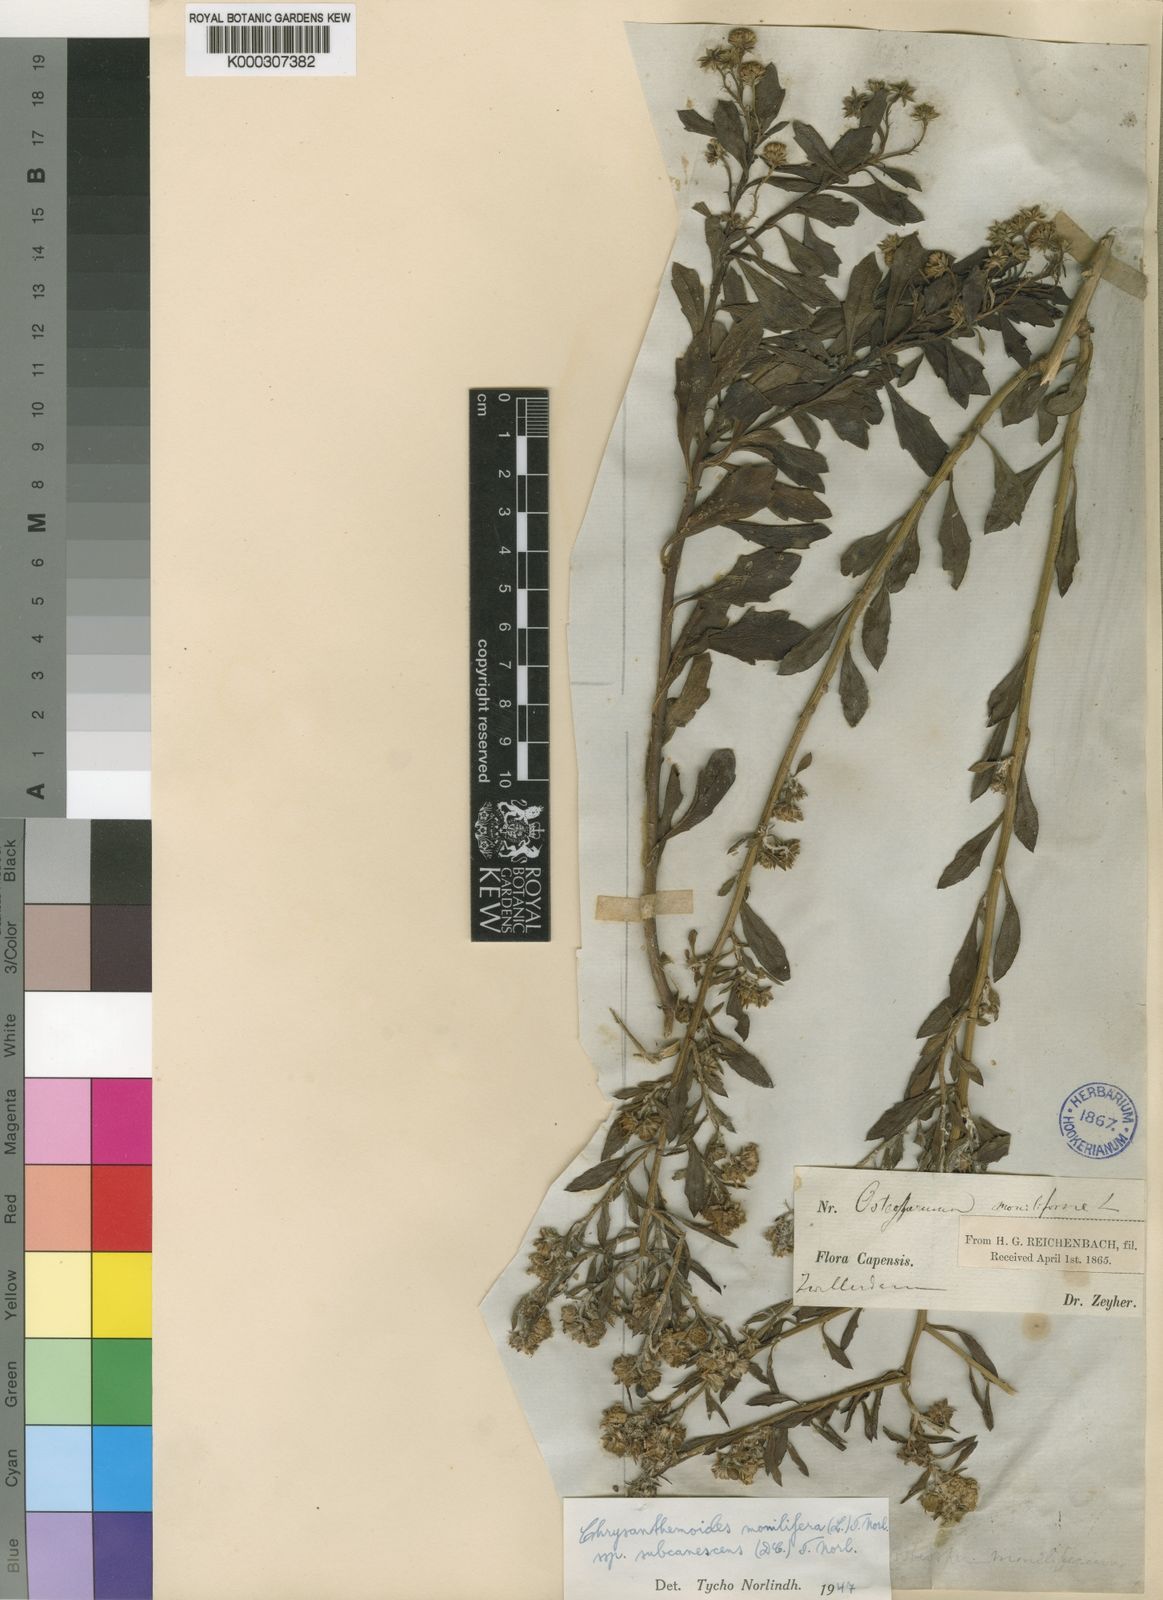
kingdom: Plantae
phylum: Tracheophyta
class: Magnoliopsida
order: Asterales
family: Asteraceae
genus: Osteospermum
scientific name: Osteospermum moniliferum
